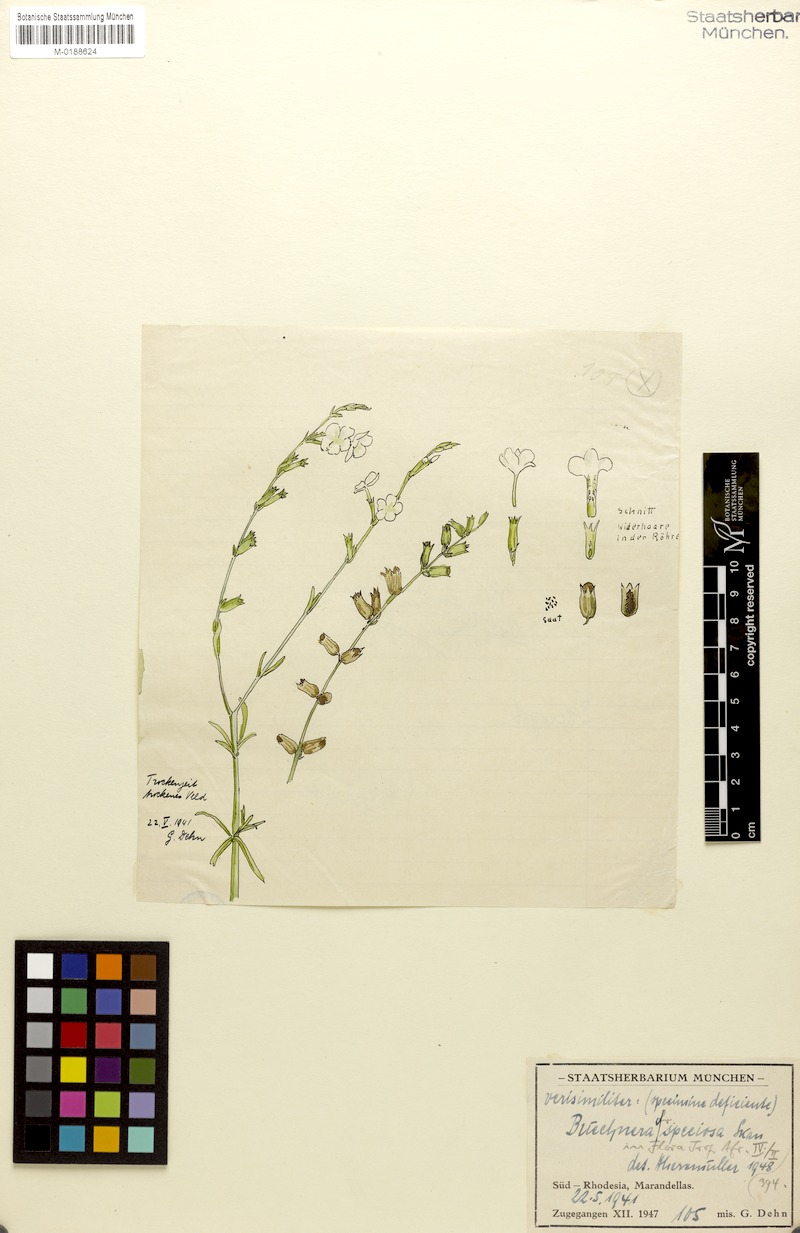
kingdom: Plantae
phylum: Tracheophyta
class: Magnoliopsida
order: Lamiales
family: Orobanchaceae
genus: Buchnera
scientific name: Buchnera speciosa
